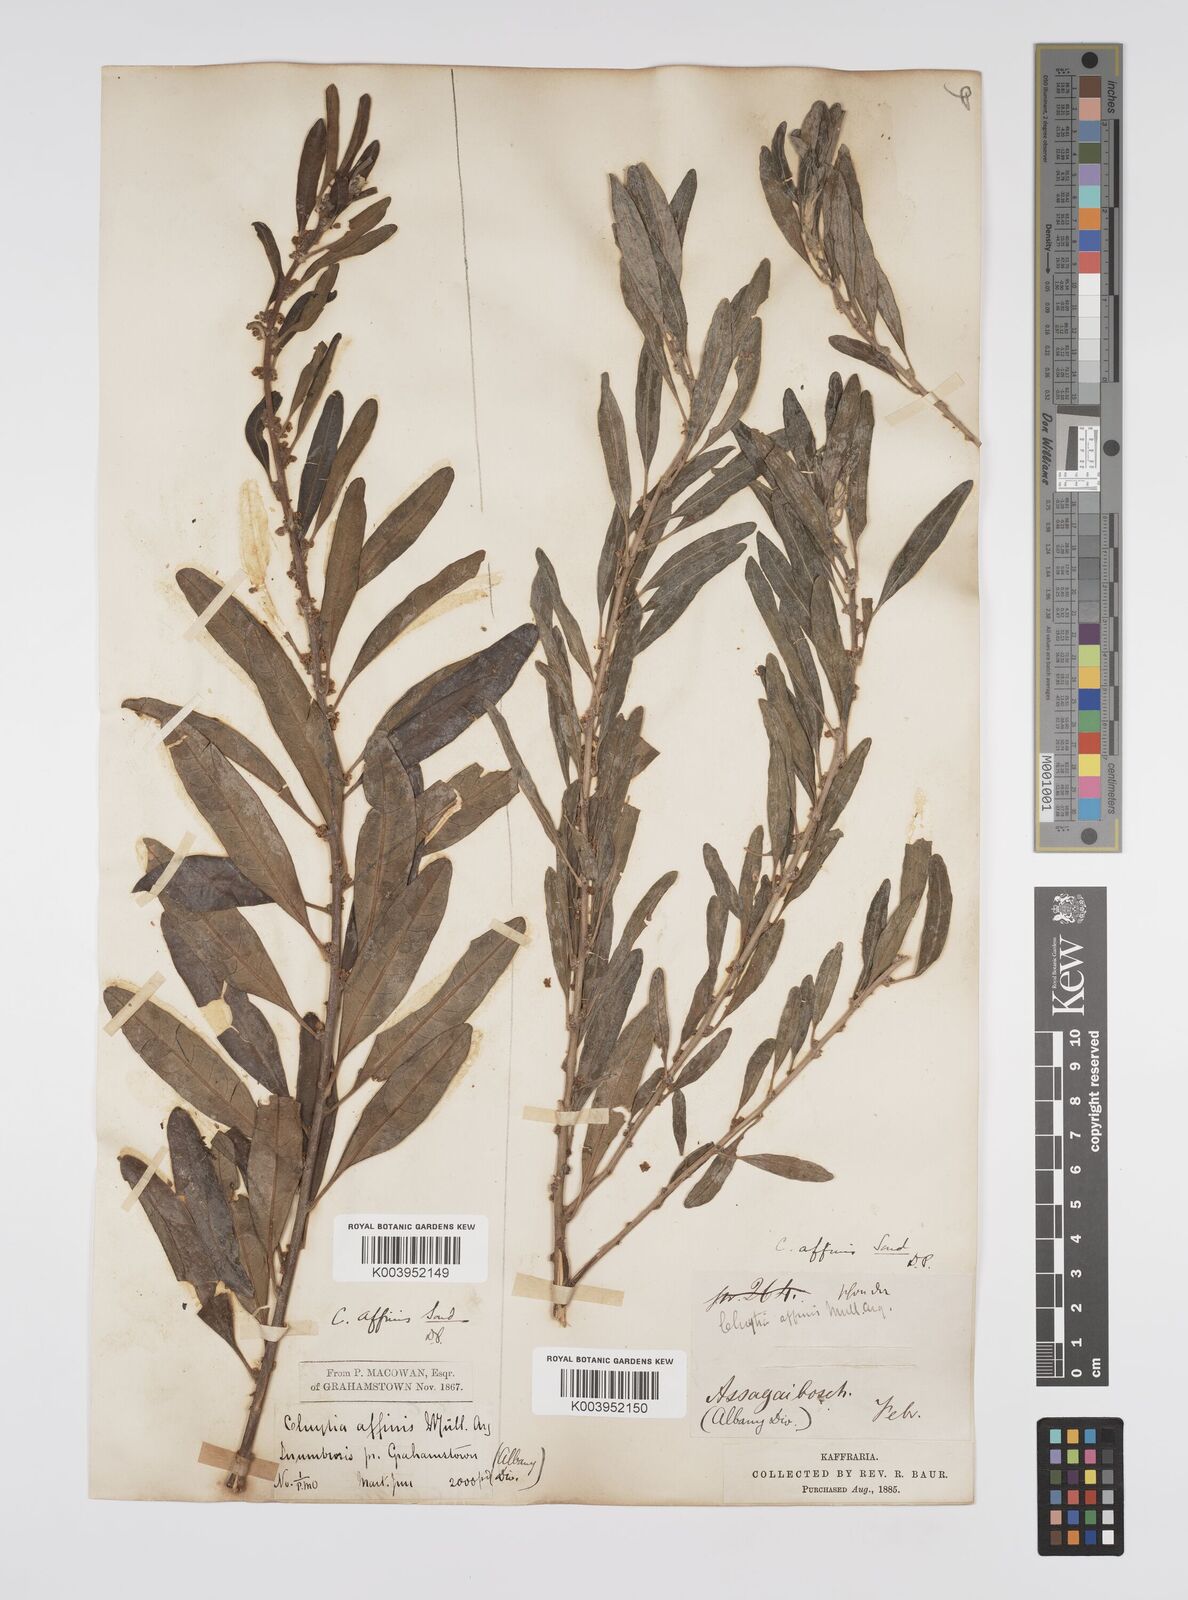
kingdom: Plantae
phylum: Tracheophyta
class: Magnoliopsida
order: Malpighiales
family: Peraceae
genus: Clutia
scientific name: Clutia affinis
